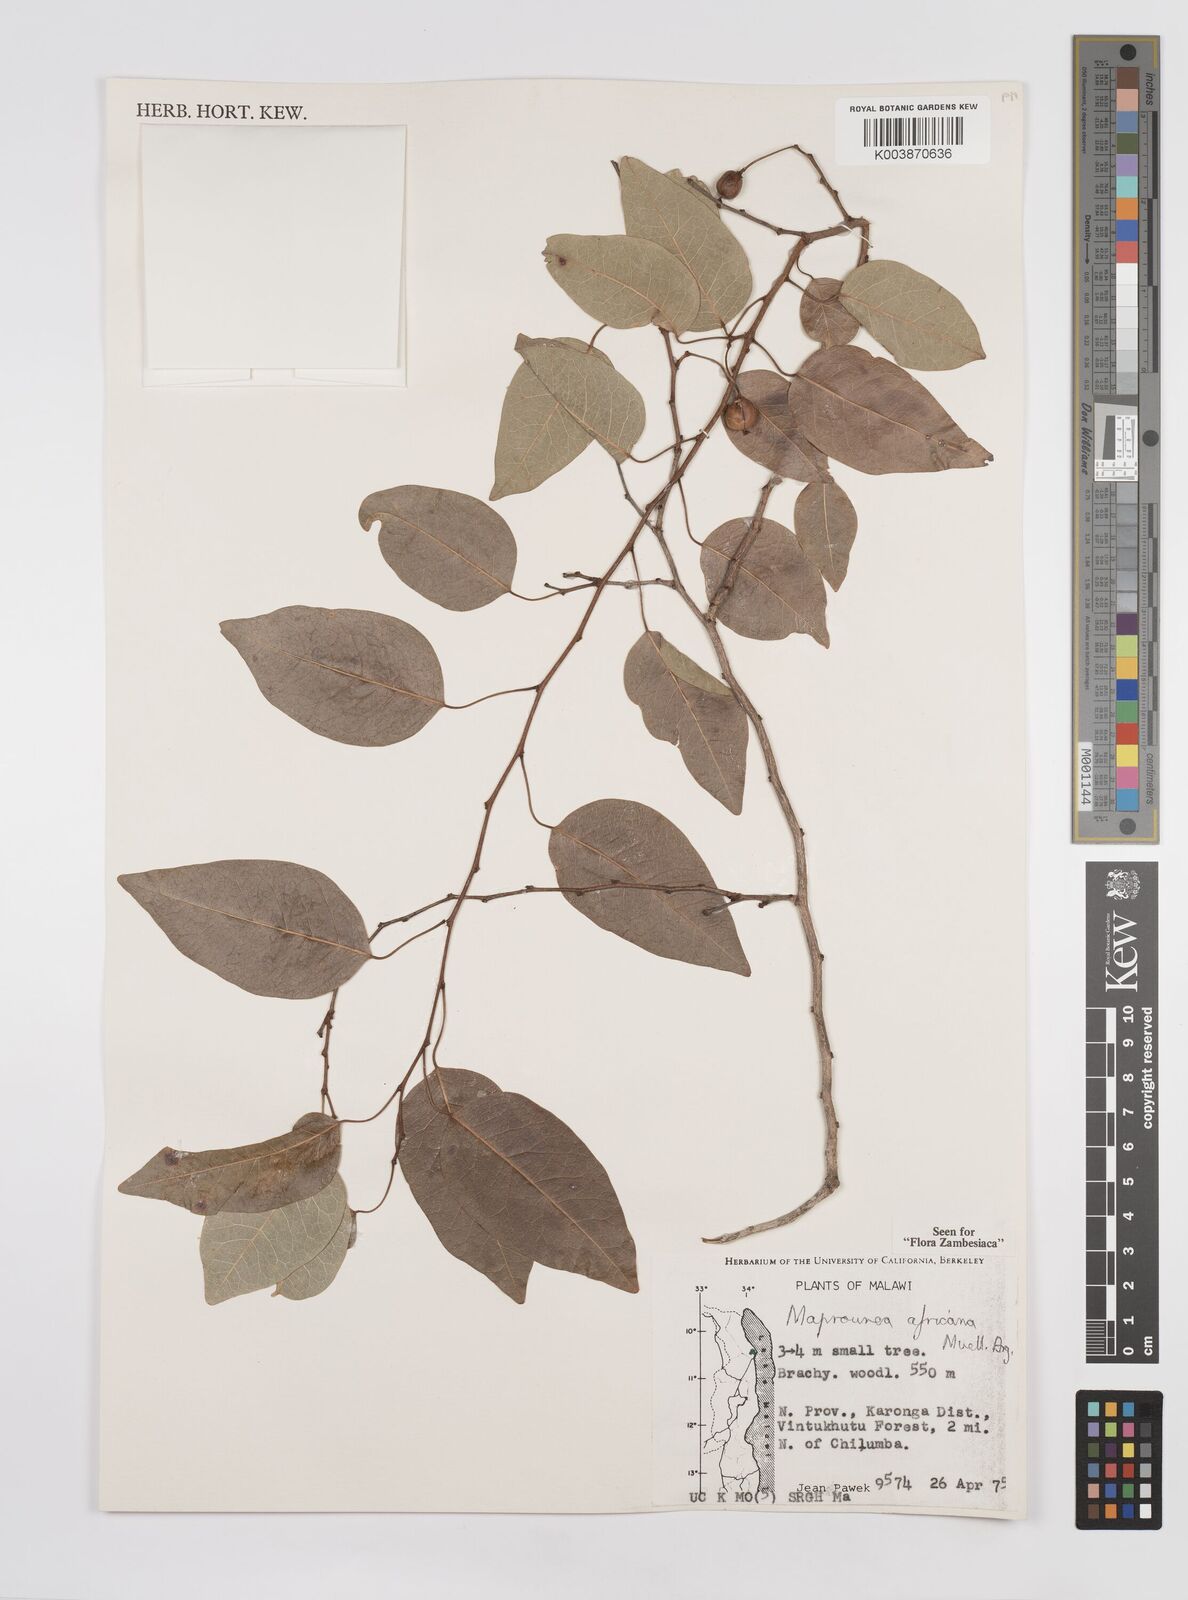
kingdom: Plantae
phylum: Tracheophyta
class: Magnoliopsida
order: Malpighiales
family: Euphorbiaceae
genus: Maprounea
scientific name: Maprounea africana
